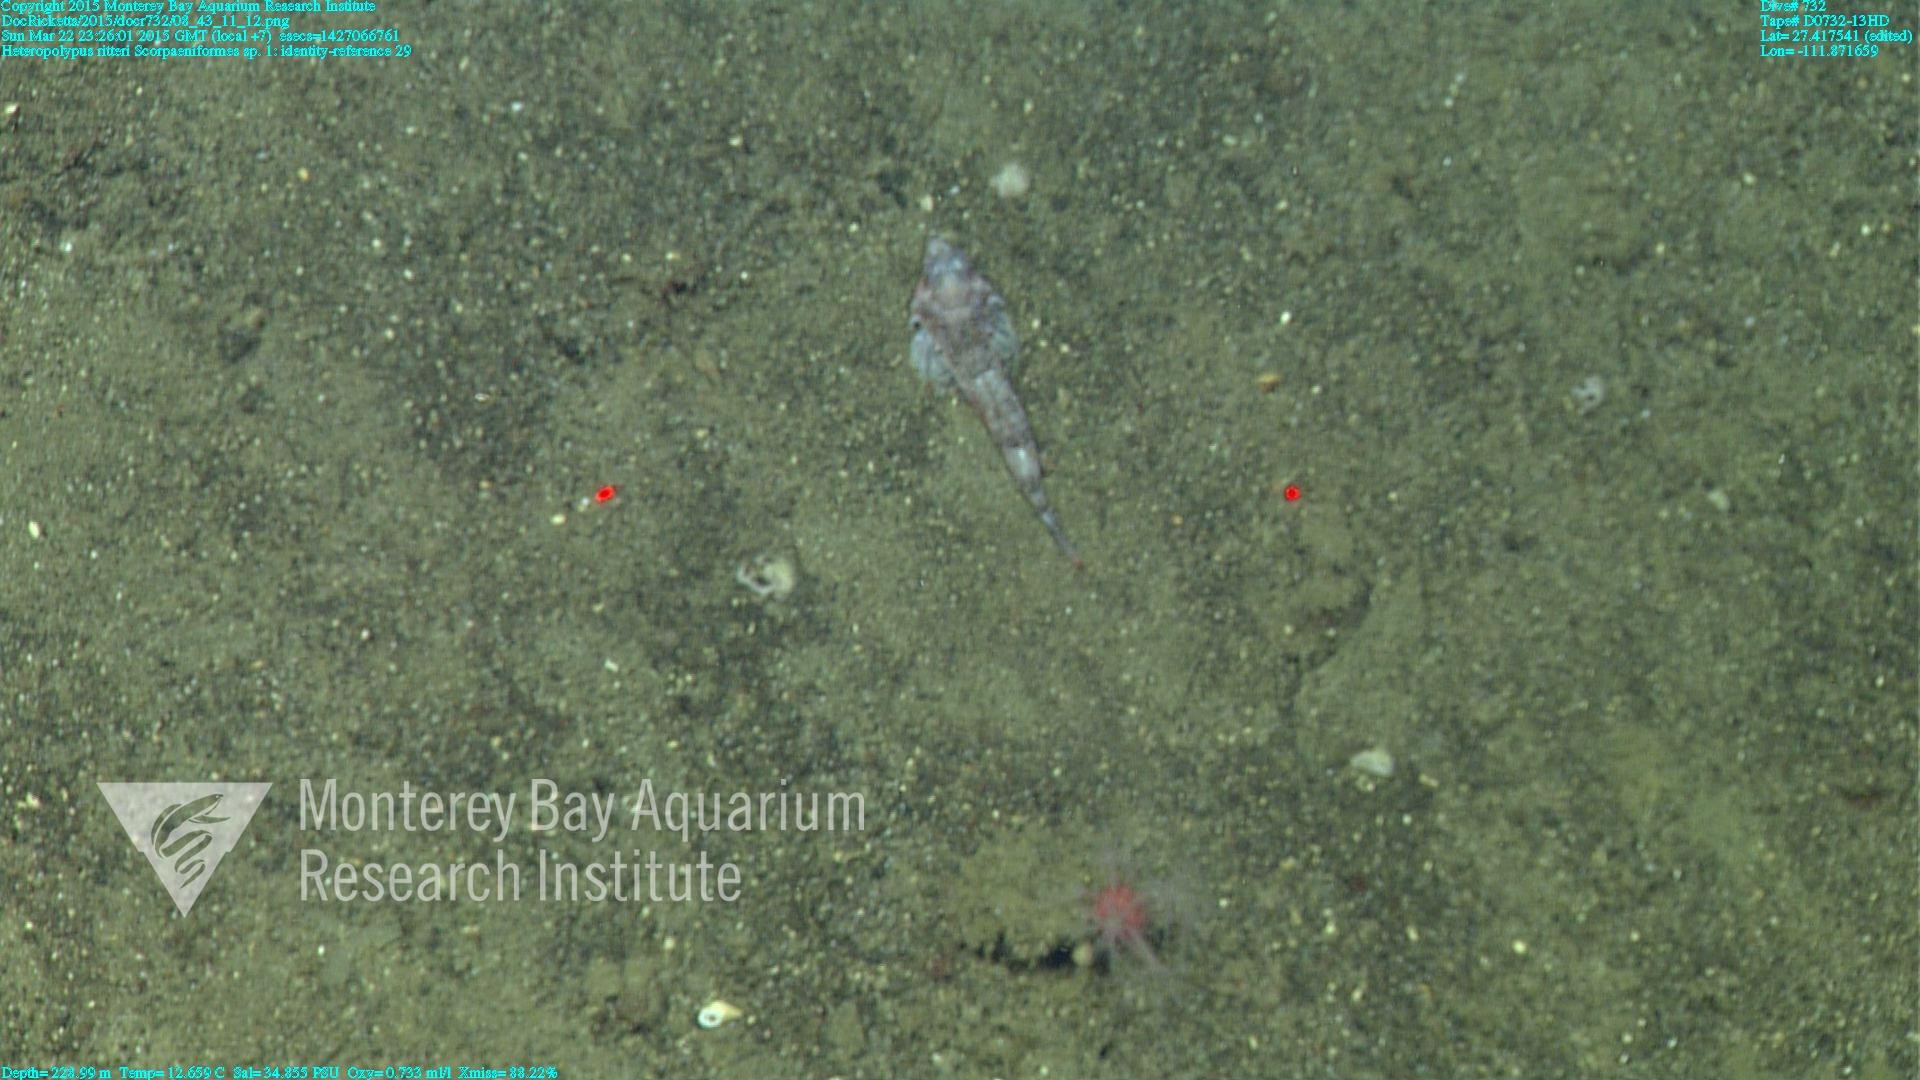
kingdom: Animalia
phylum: Cnidaria
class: Anthozoa
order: Scleralcyonacea
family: Coralliidae
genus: Heteropolypus
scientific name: Heteropolypus ritteri
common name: Ritter's soft coral
